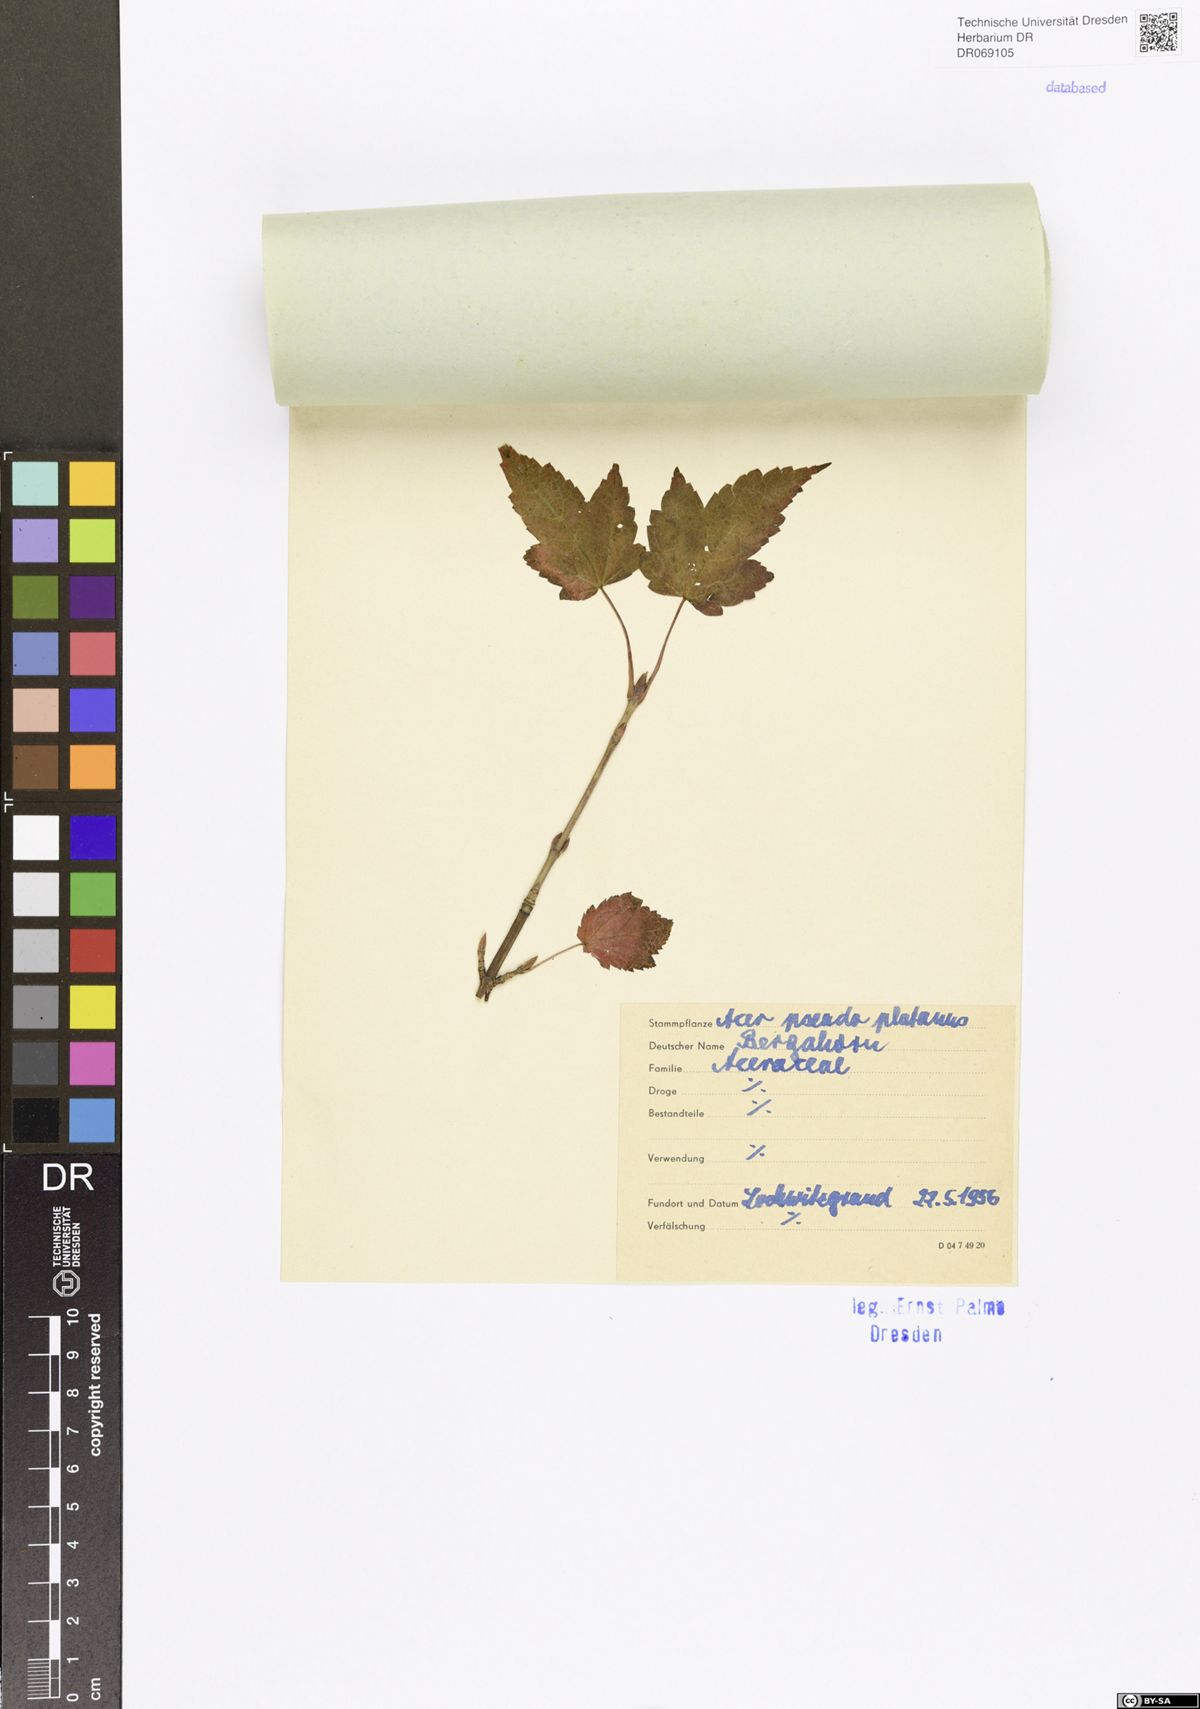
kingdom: Plantae
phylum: Tracheophyta
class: Magnoliopsida
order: Sapindales
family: Sapindaceae
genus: Acer
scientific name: Acer pseudoplatanus
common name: Sycamore
